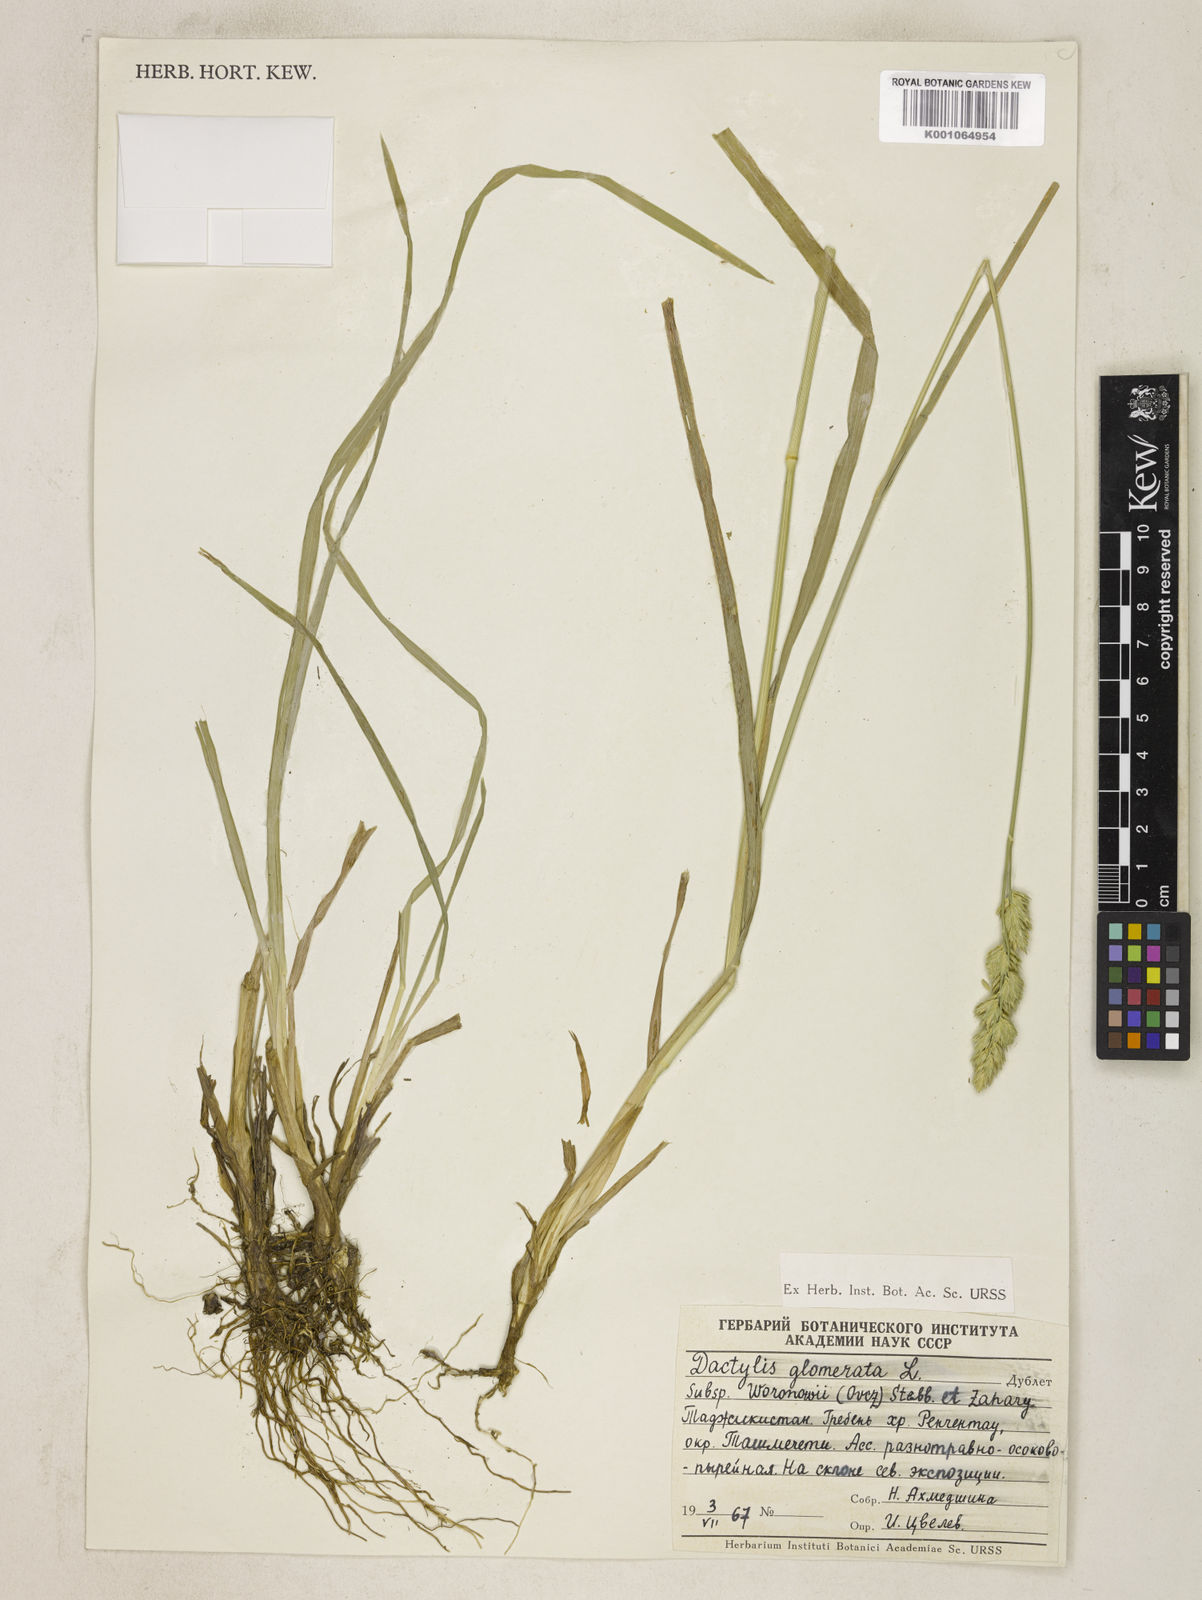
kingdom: Plantae
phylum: Tracheophyta
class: Liliopsida
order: Poales
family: Poaceae
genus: Dactylis
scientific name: Dactylis glomerata
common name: Orchardgrass
